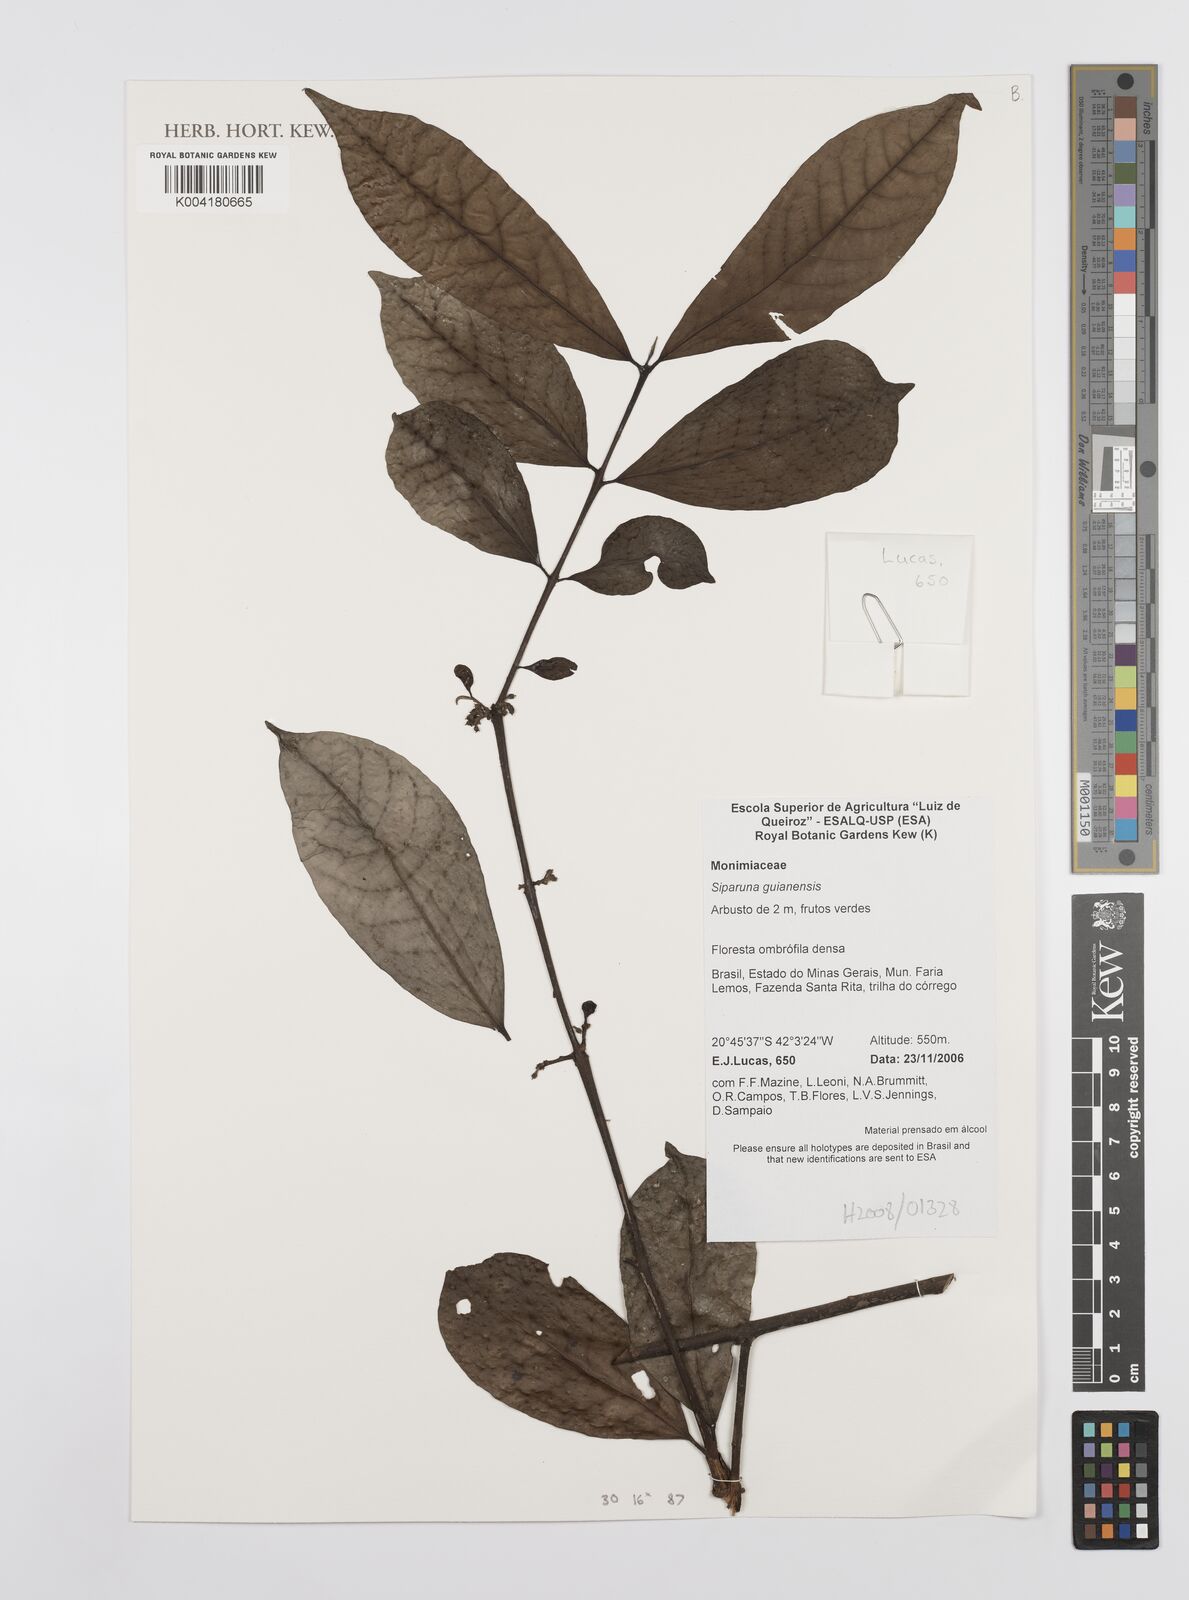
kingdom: Plantae
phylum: Tracheophyta
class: Magnoliopsida
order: Laurales
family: Siparunaceae
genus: Siparuna
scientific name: Siparuna guianensis
